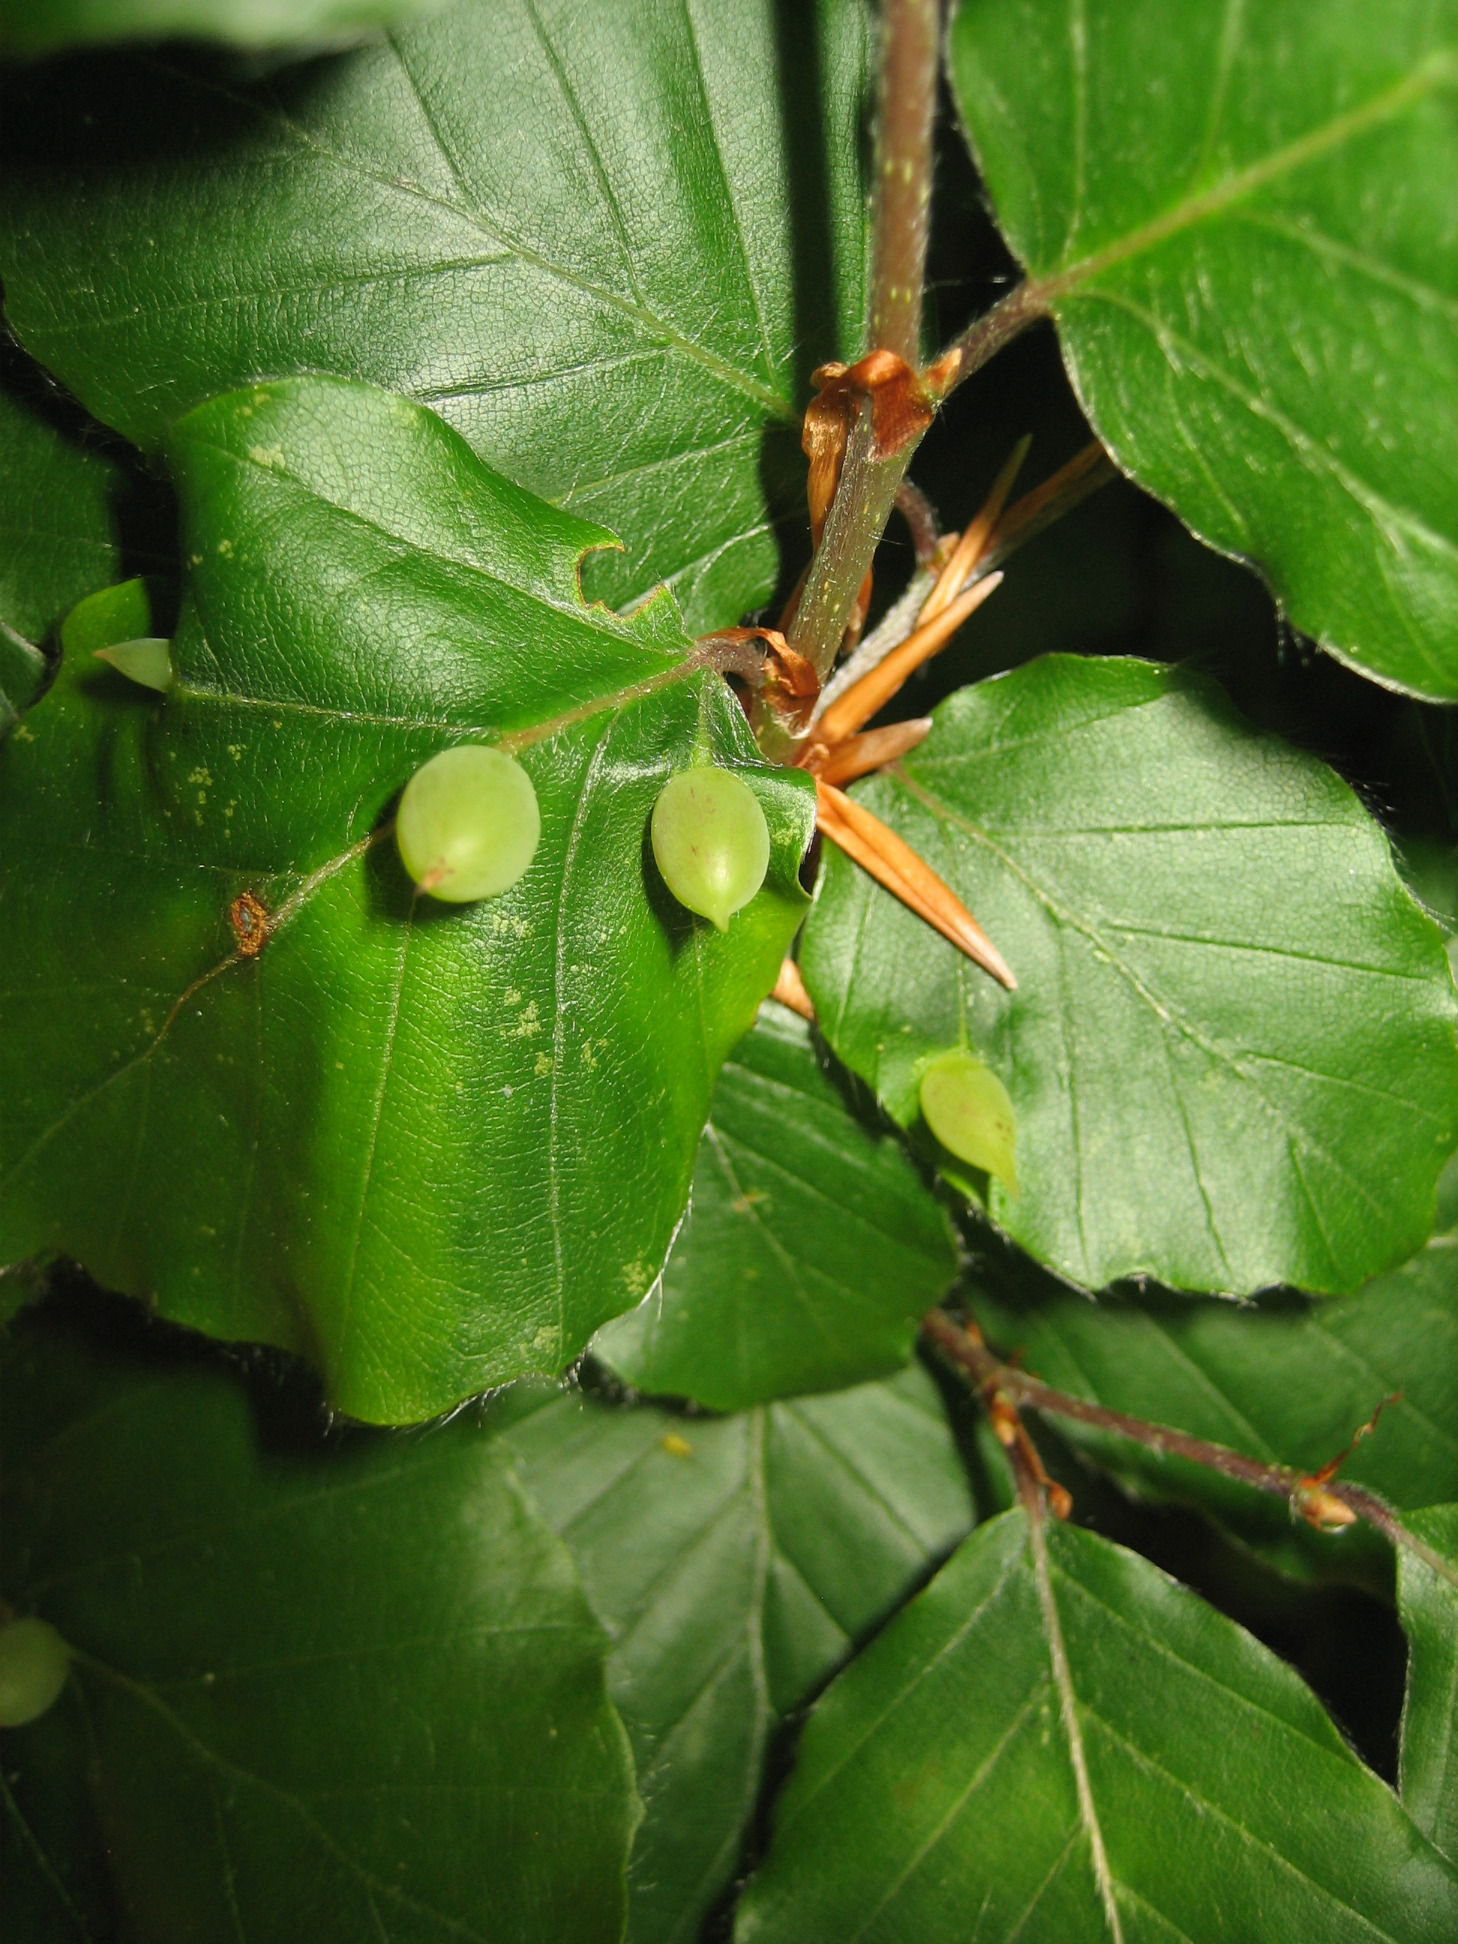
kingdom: Animalia
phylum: Arthropoda
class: Insecta
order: Diptera
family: Cecidomyiidae
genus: Mikiola
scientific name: Mikiola fagi
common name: Bøgegalmyg
